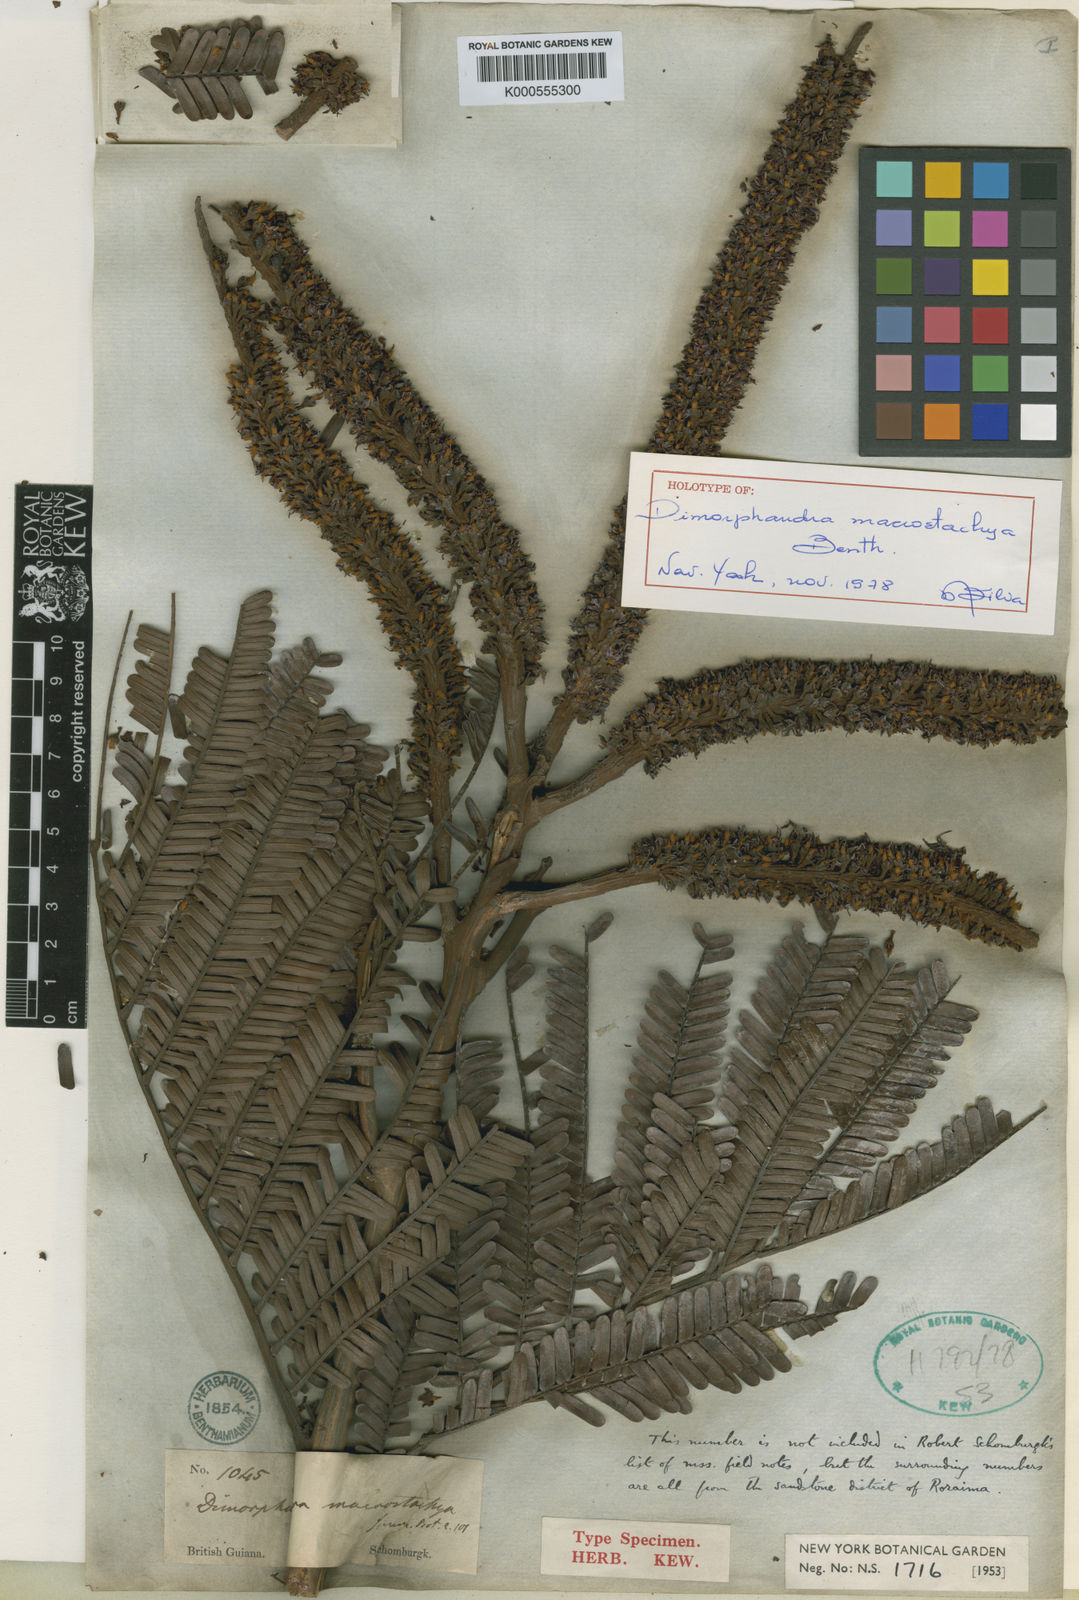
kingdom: Plantae
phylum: Tracheophyta
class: Magnoliopsida
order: Fabales
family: Fabaceae
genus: Dimorphandra
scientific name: Dimorphandra macrostachya
